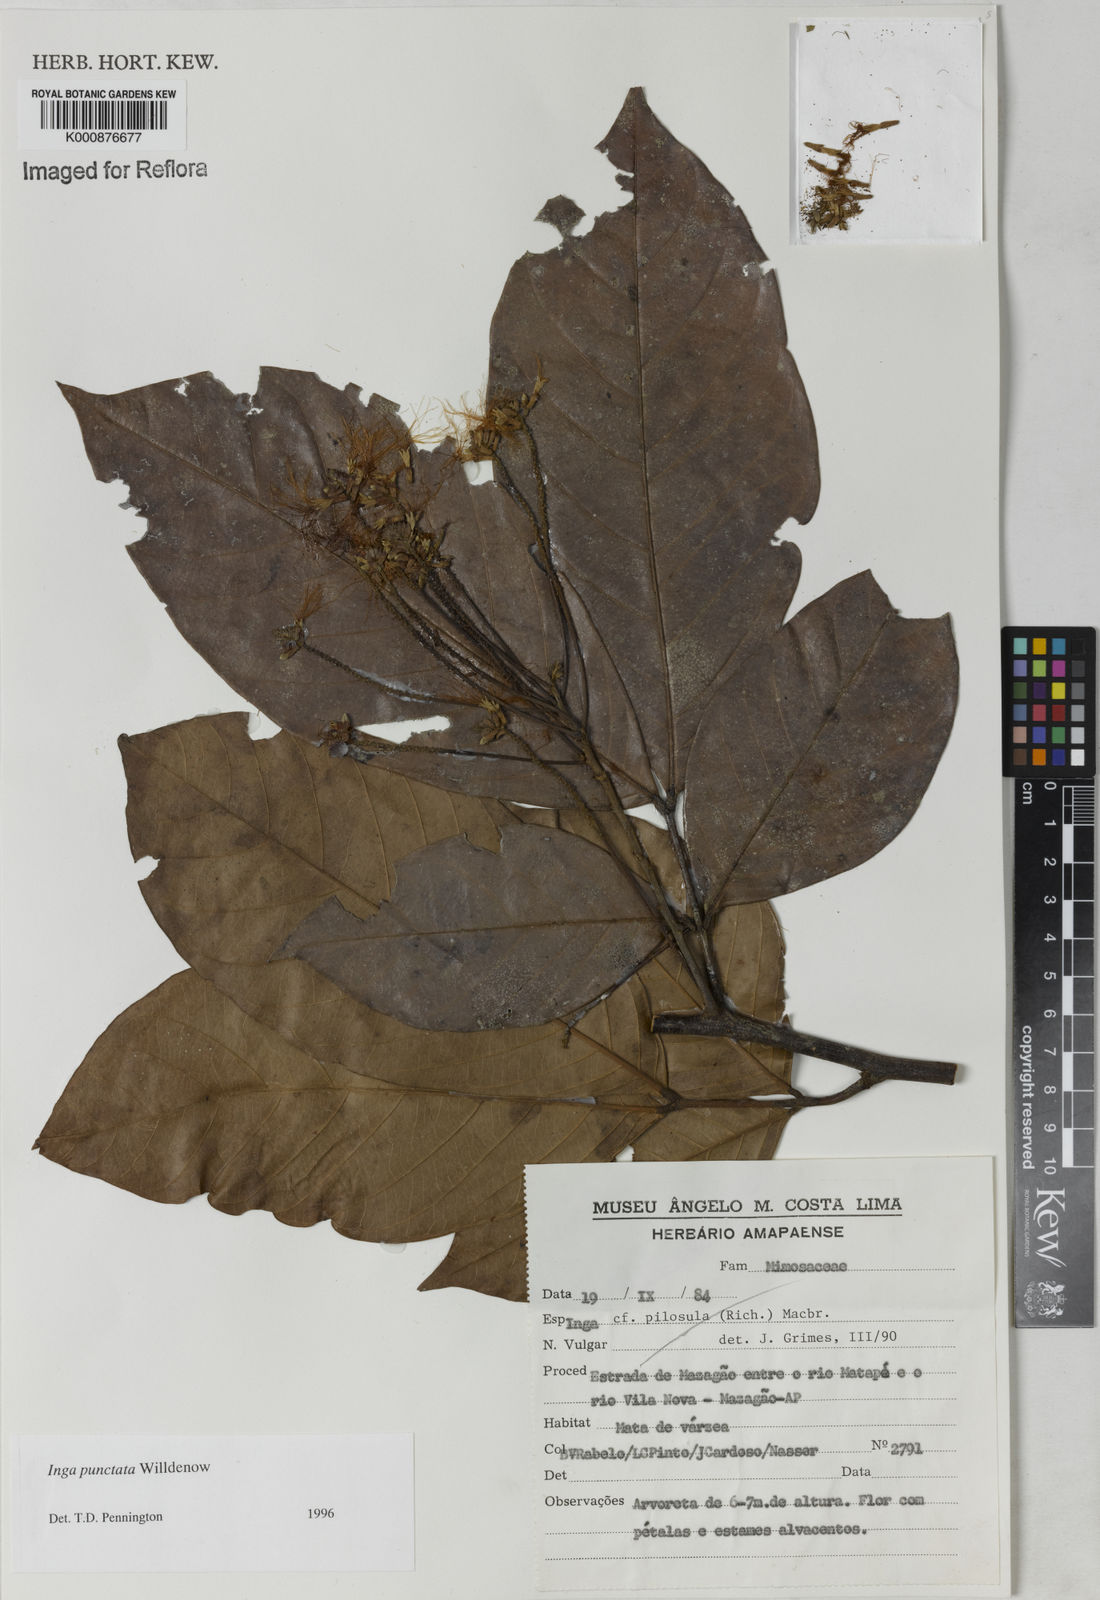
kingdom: Plantae
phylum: Tracheophyta
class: Magnoliopsida
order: Fabales
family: Fabaceae
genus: Inga
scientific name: Inga punctata
